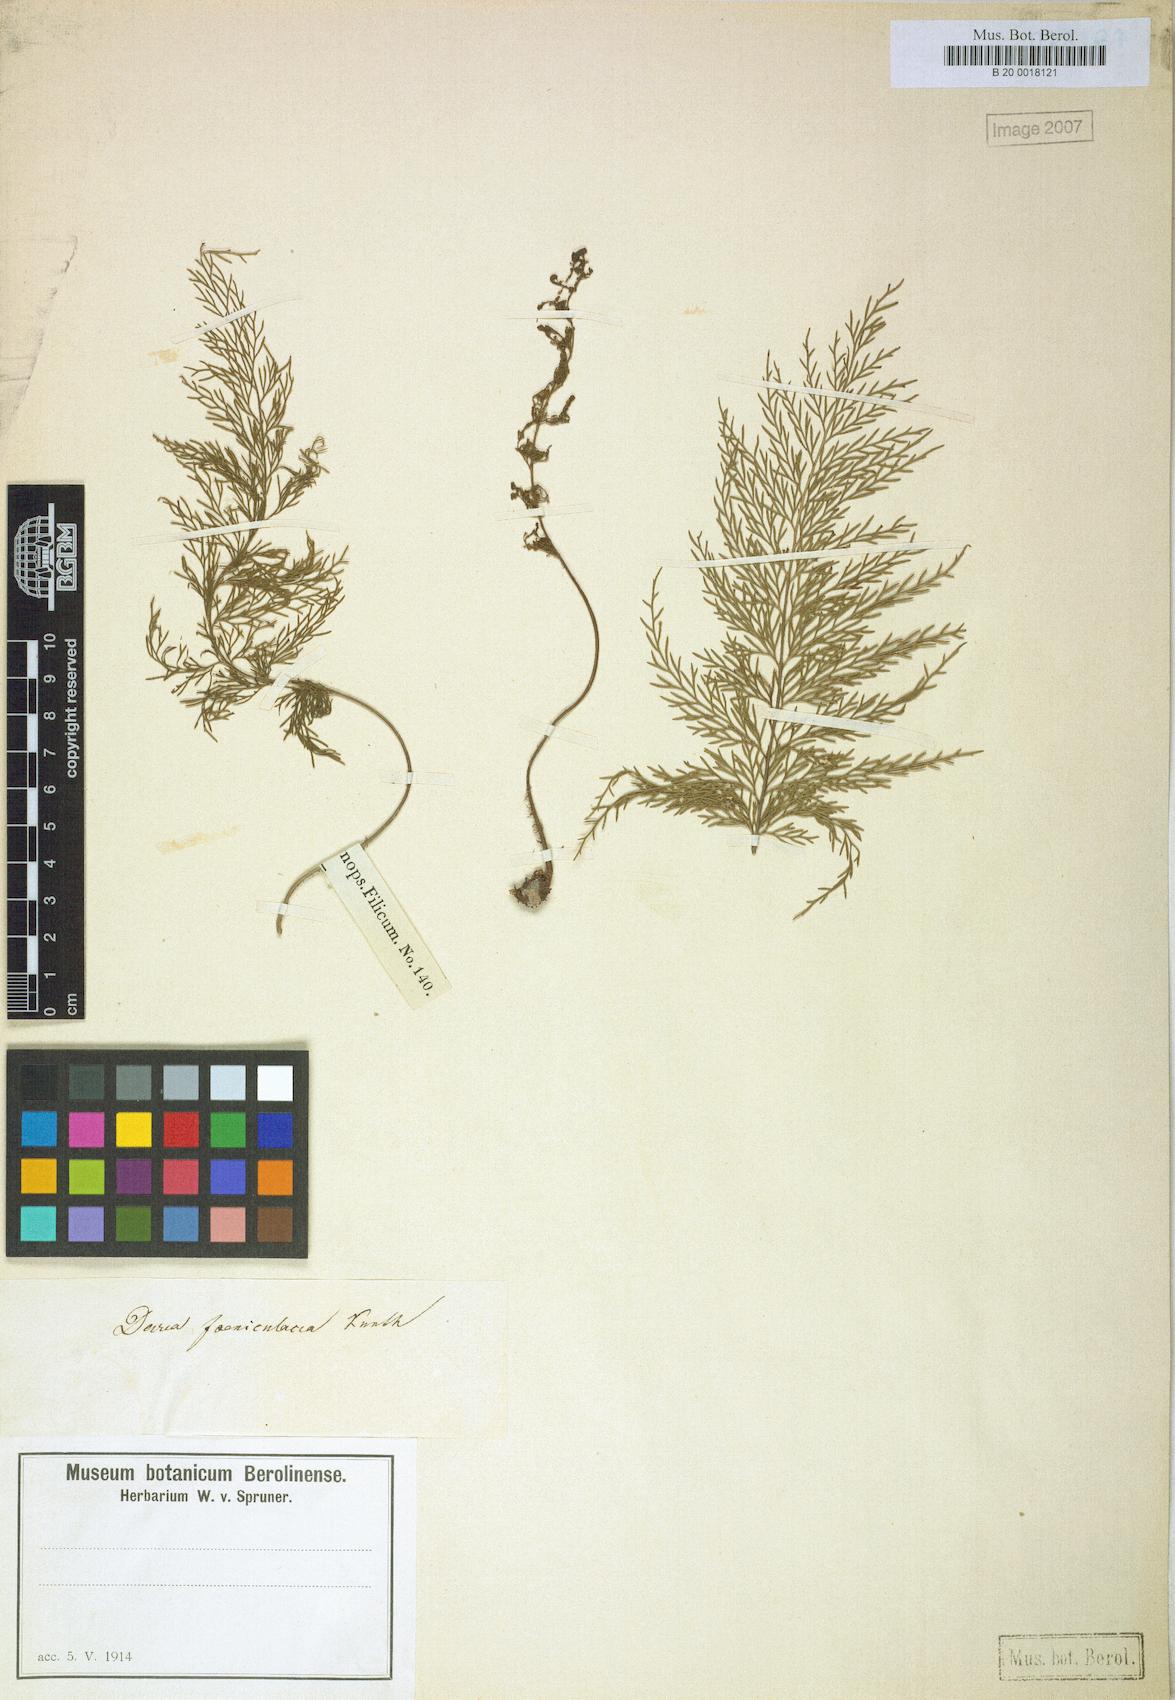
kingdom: Plantae
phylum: Tracheophyta
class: Polypodiopsida
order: Polypodiales
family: Aspleniaceae
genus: Asplenium
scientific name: Asplenium millefolium
